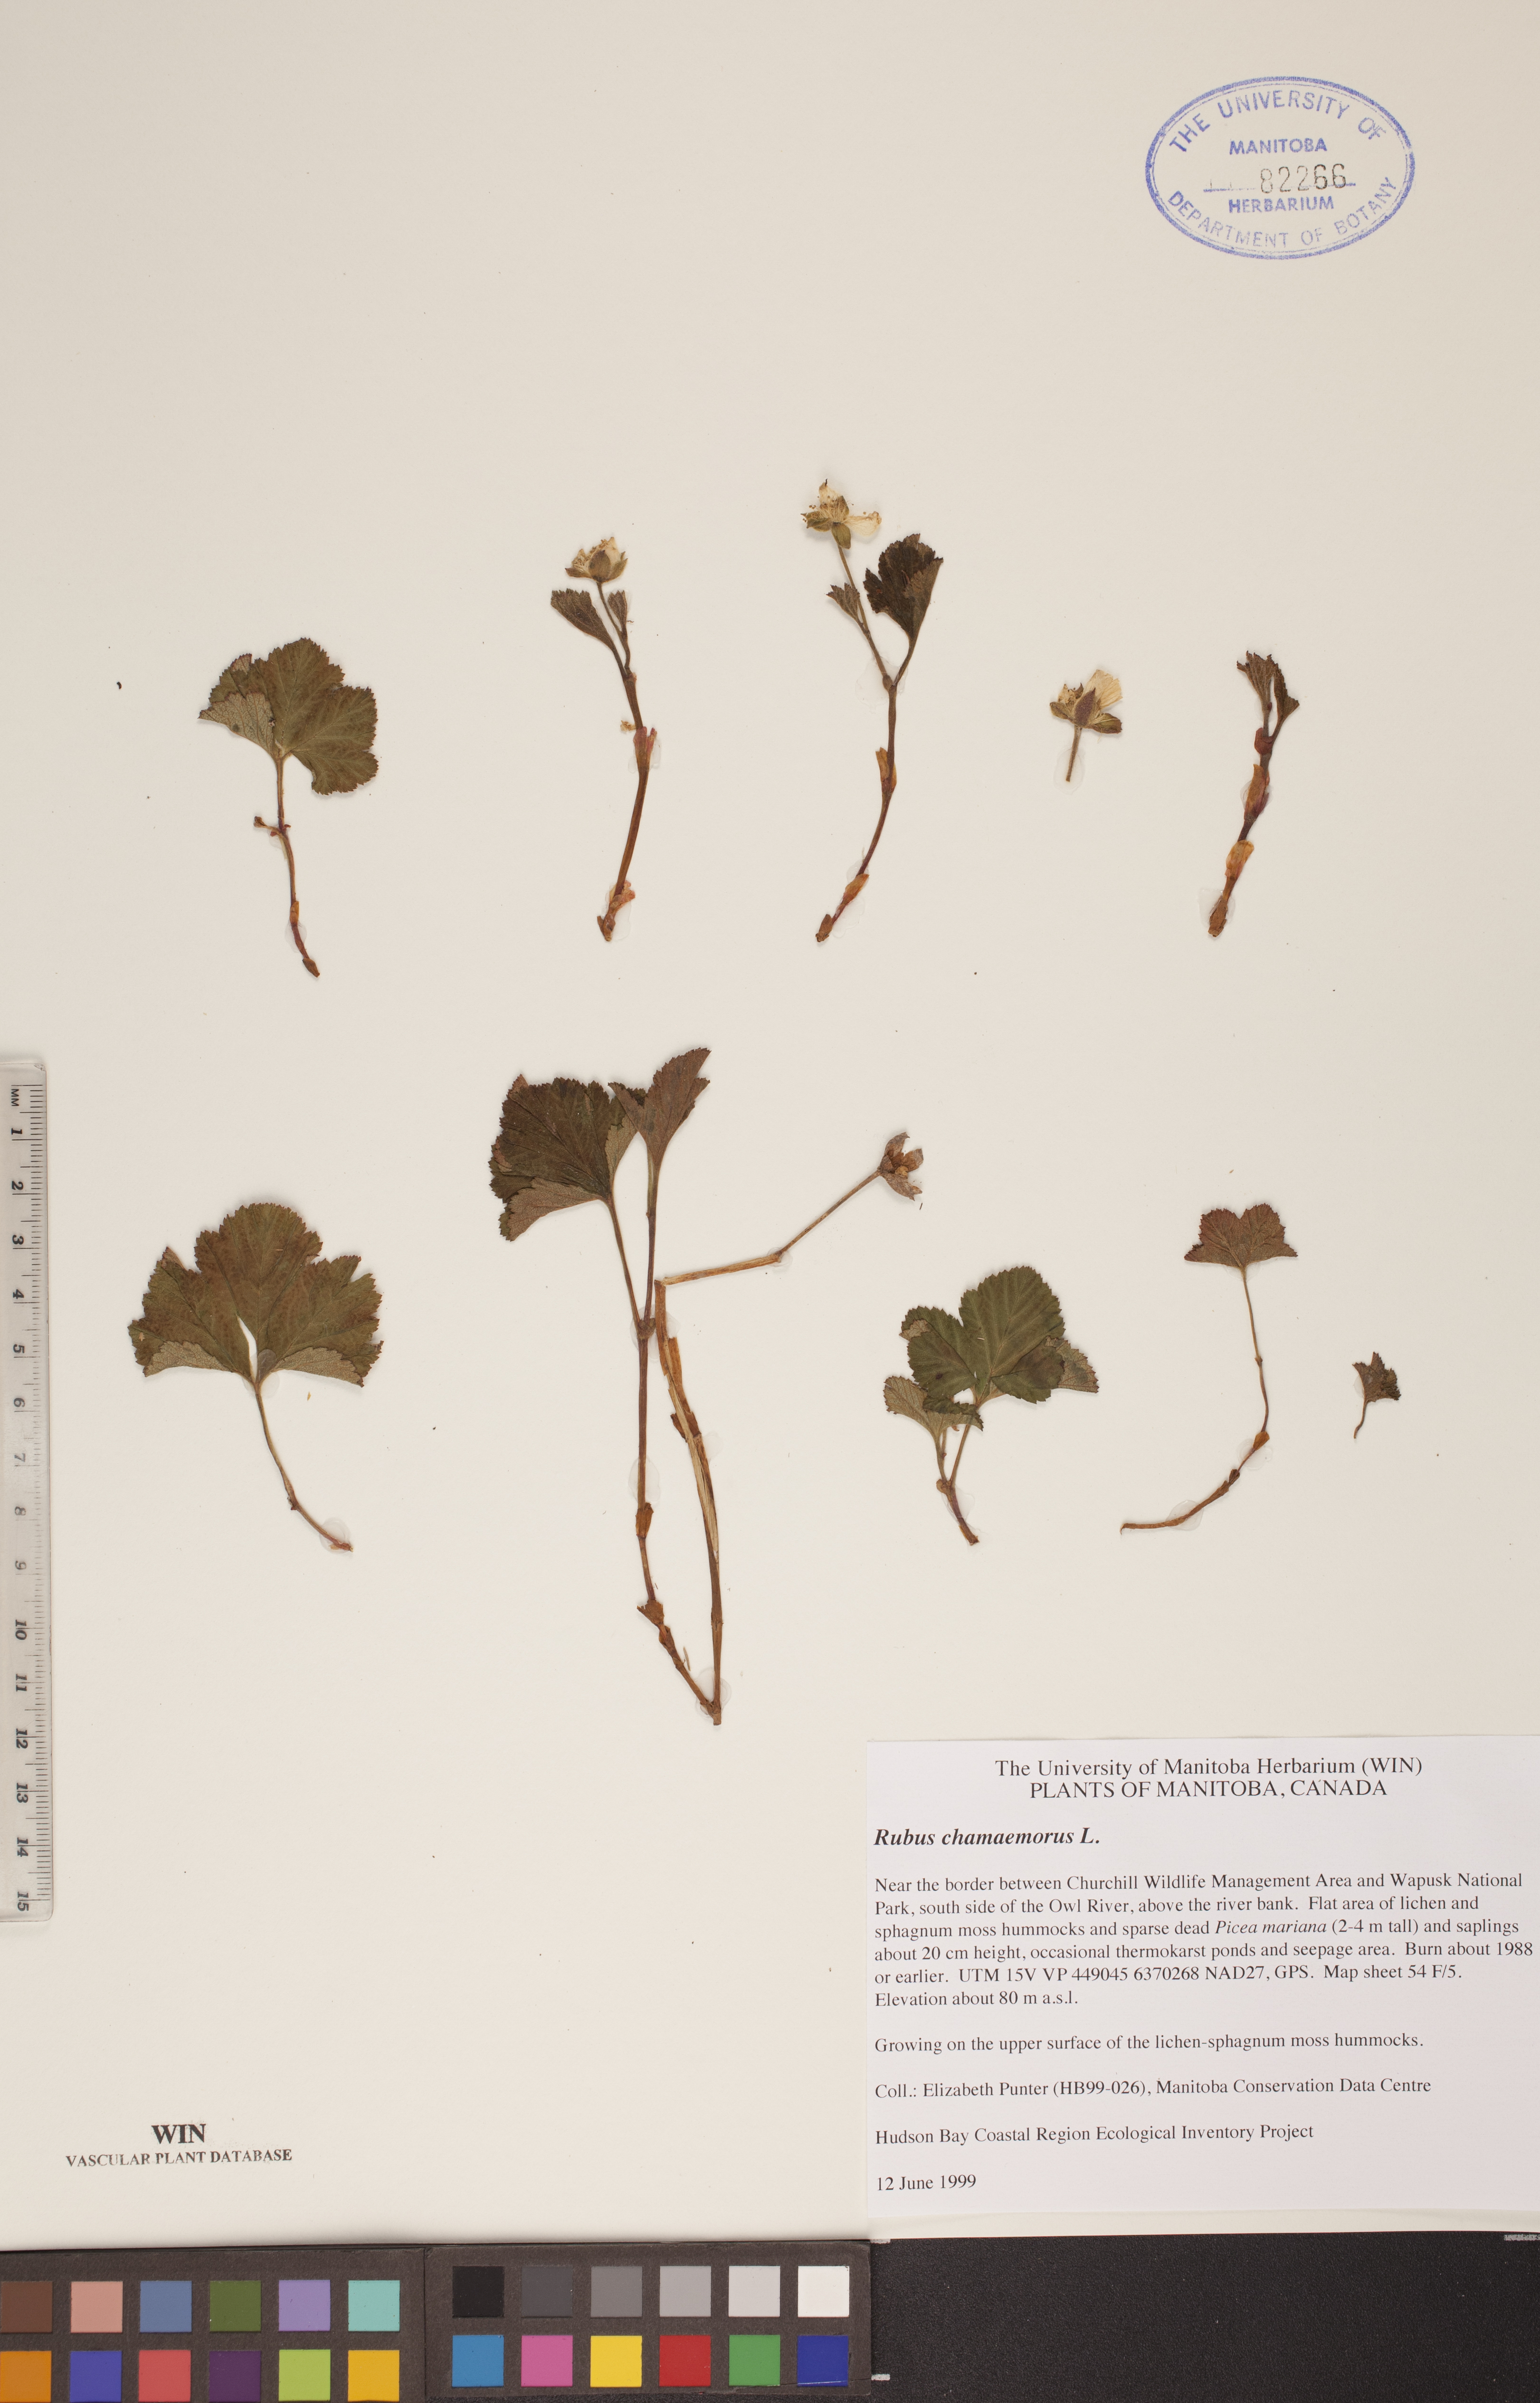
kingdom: Plantae
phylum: Tracheophyta
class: Magnoliopsida
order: Rosales
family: Rosaceae
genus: Rubus
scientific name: Rubus chamaemorus
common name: Cloudberry
